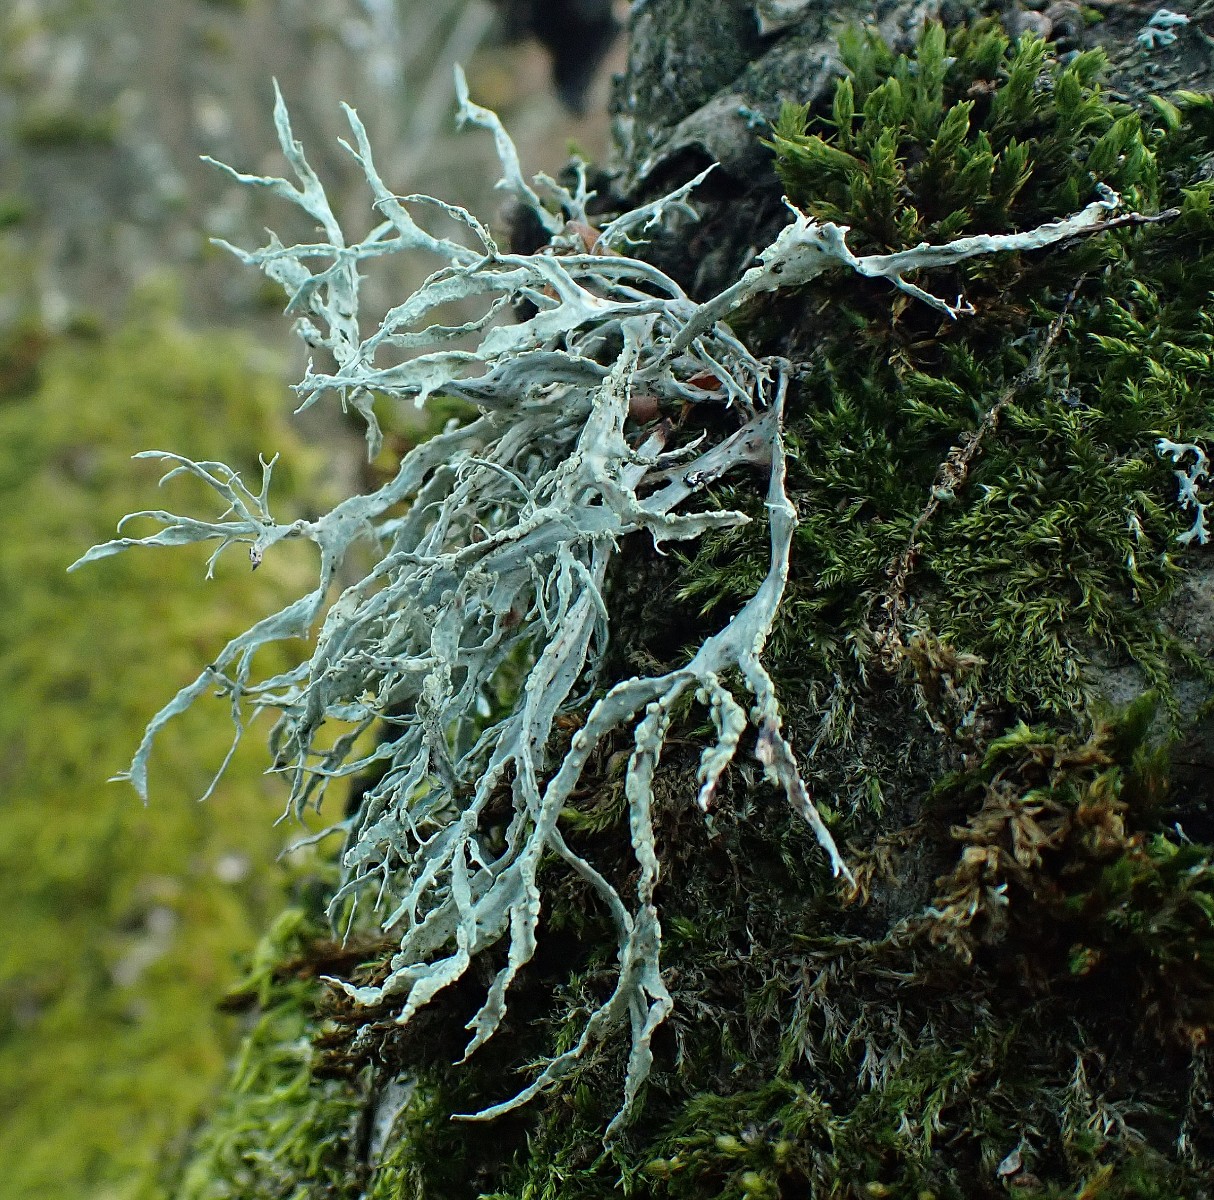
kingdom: Fungi
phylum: Ascomycota
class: Lecanoromycetes
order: Lecanorales
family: Ramalinaceae
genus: Ramalina
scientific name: Ramalina farinacea
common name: melet grenlav
